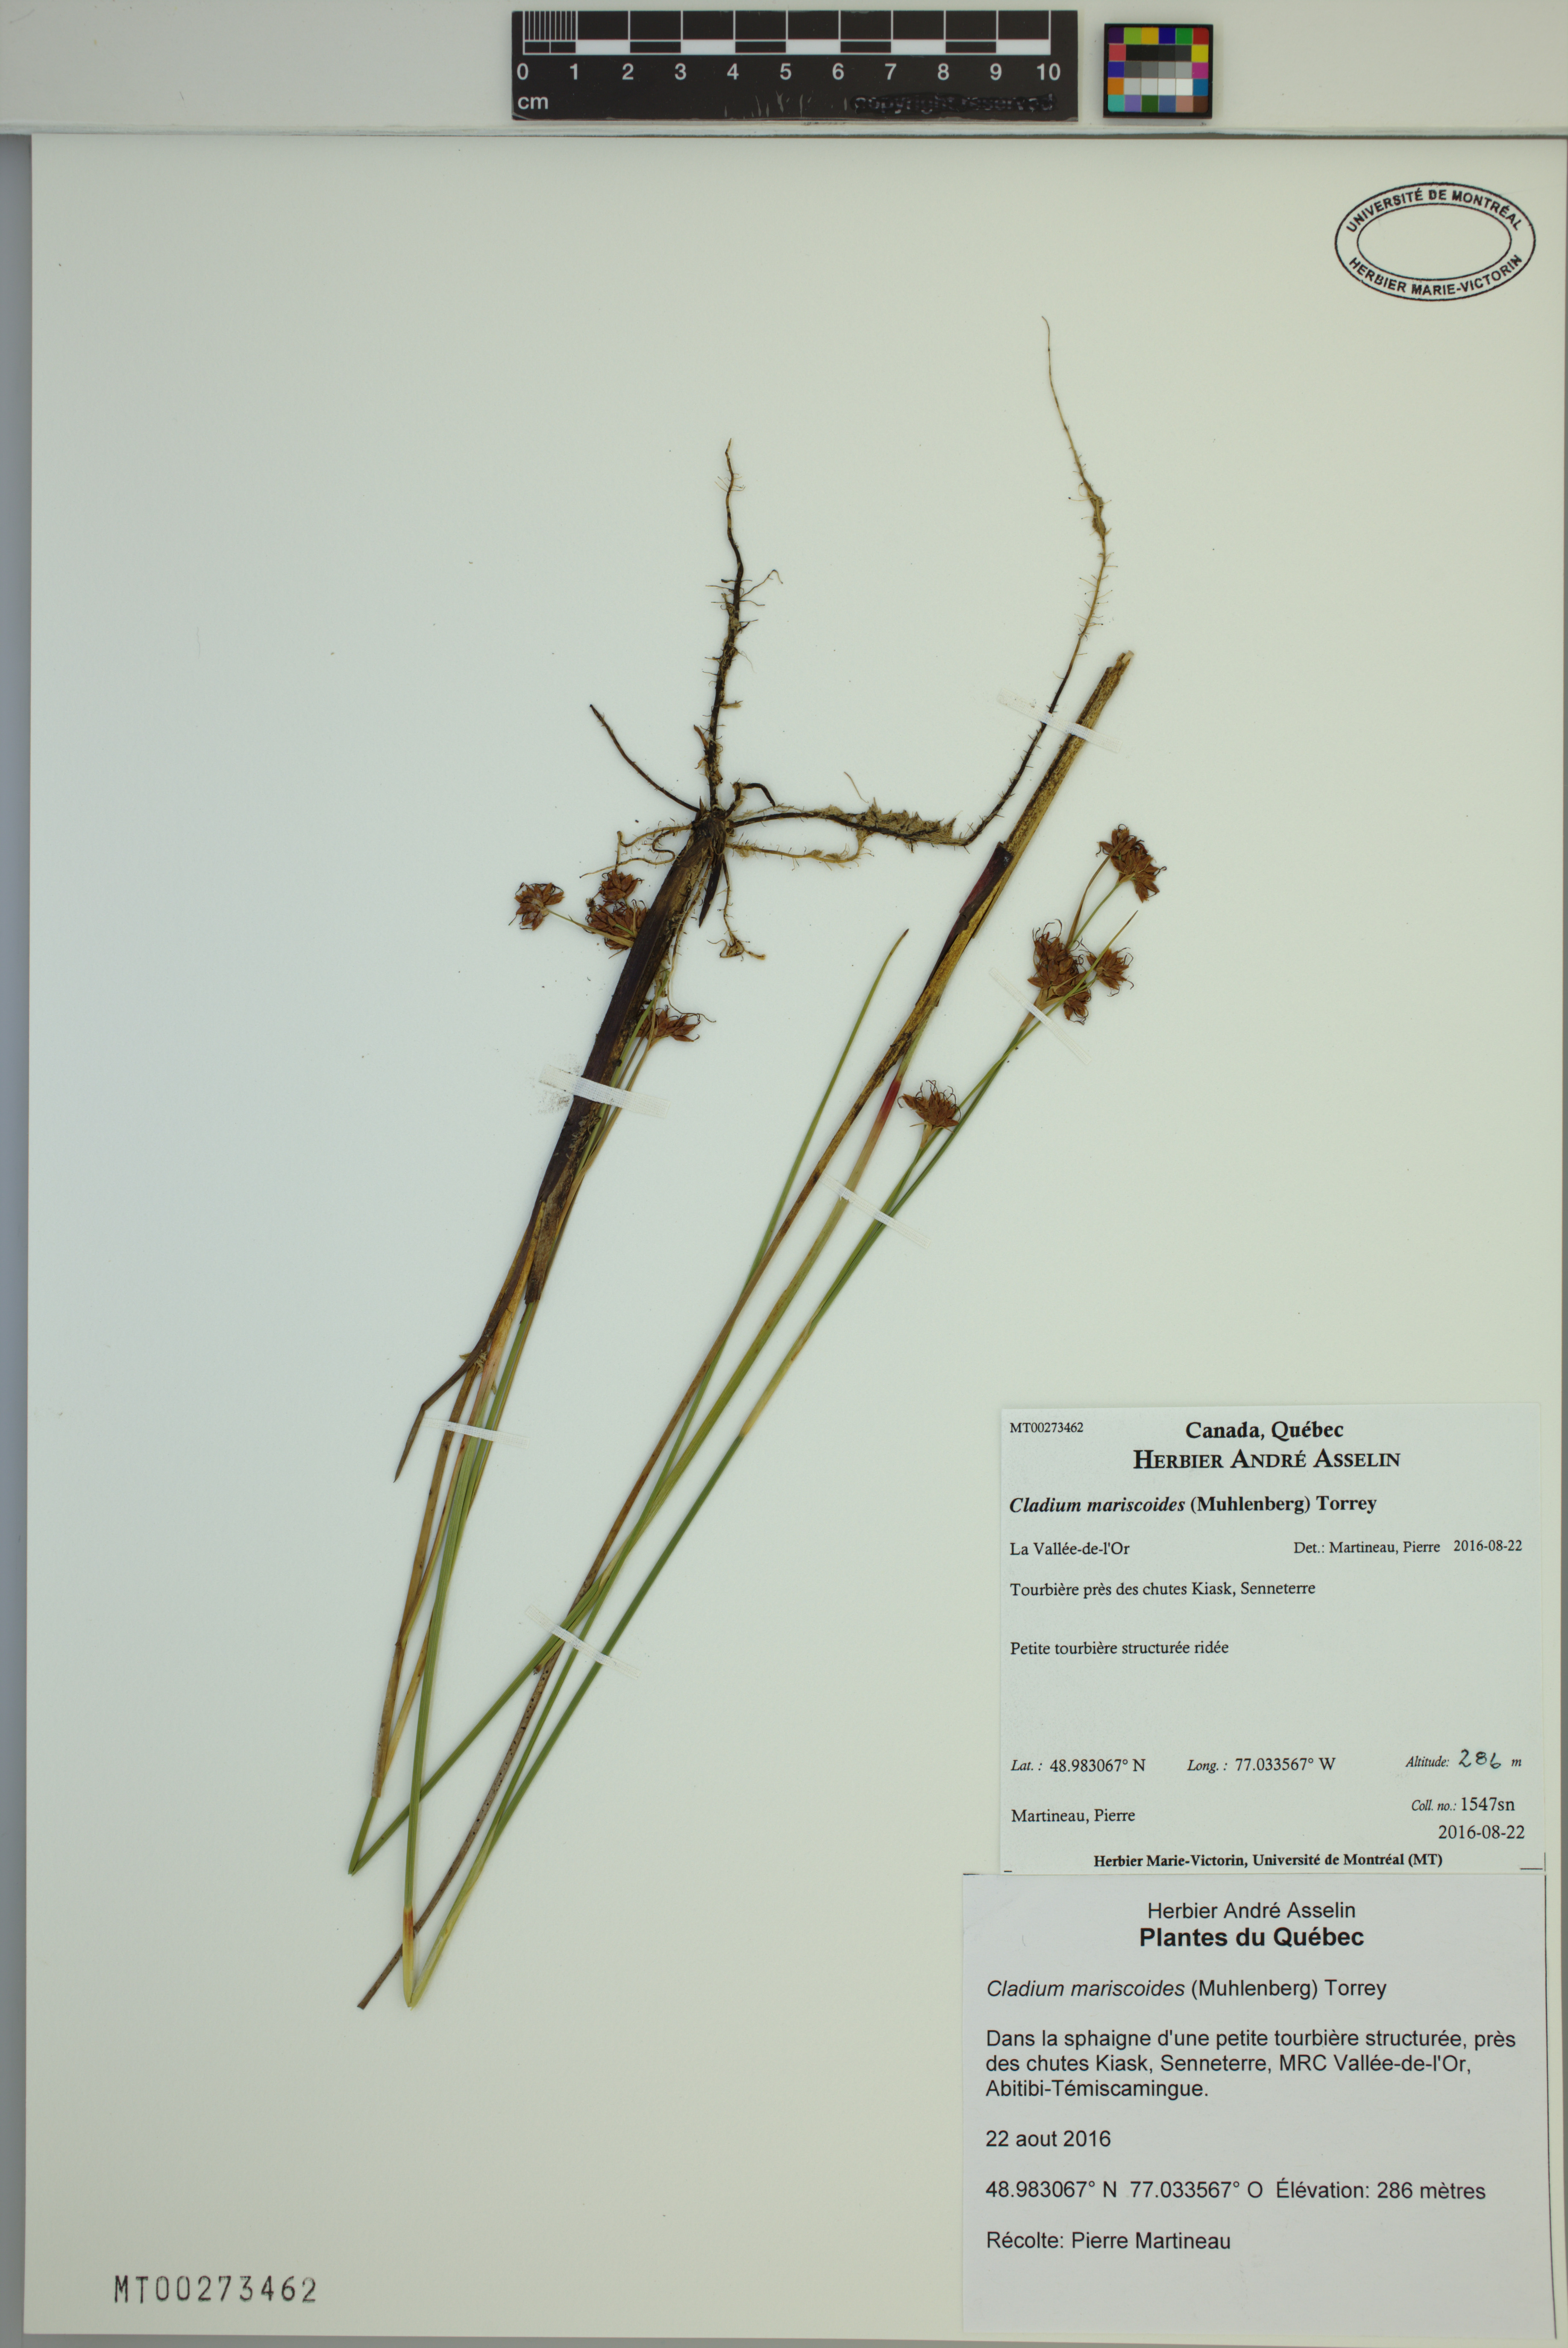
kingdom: Plantae
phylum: Tracheophyta
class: Liliopsida
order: Poales
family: Cyperaceae
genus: Cladium
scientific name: Cladium mariscoides
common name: Smooth sawgrass
